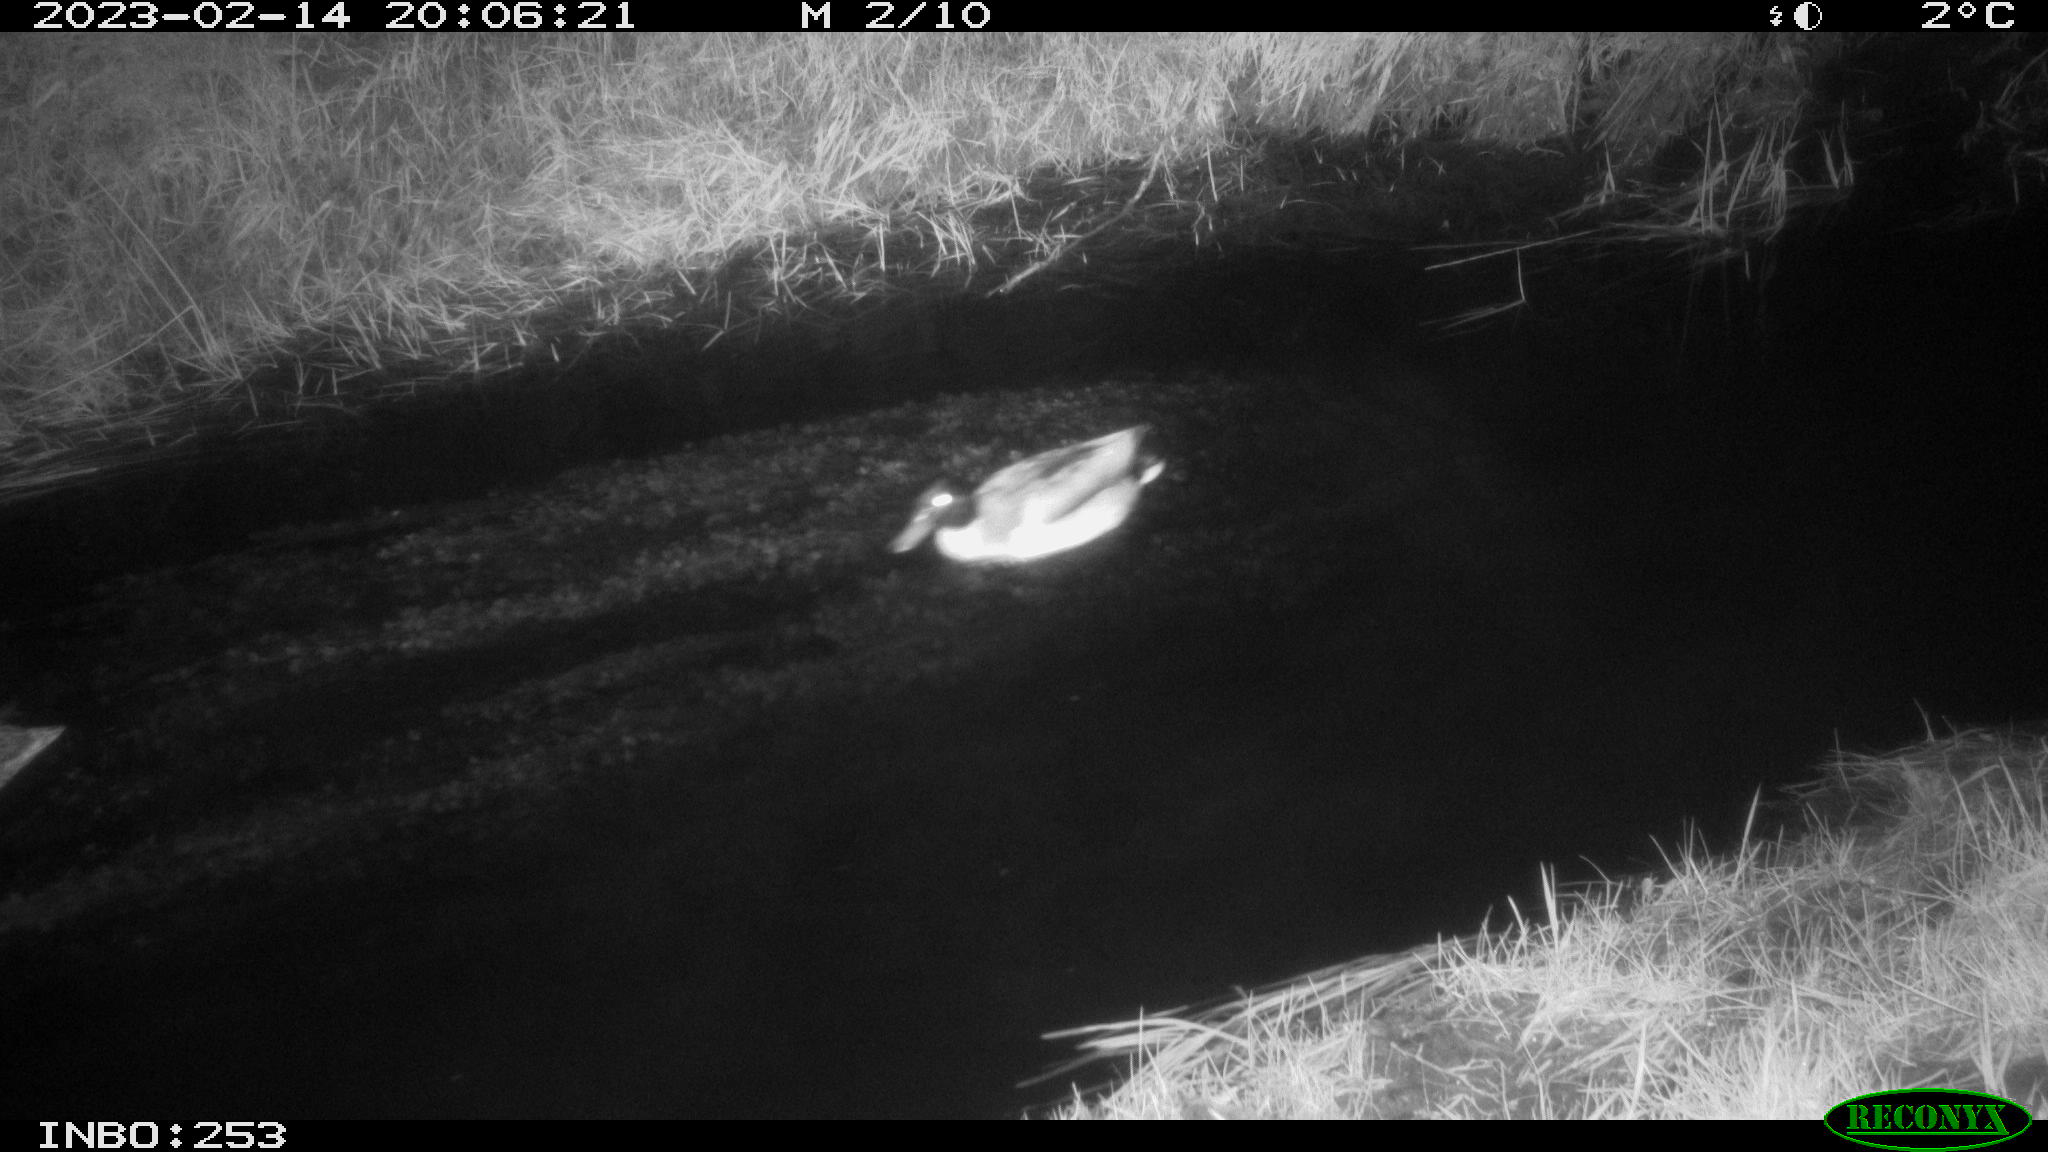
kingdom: Animalia
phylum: Chordata
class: Aves
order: Anseriformes
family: Anatidae
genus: Anas
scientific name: Anas
